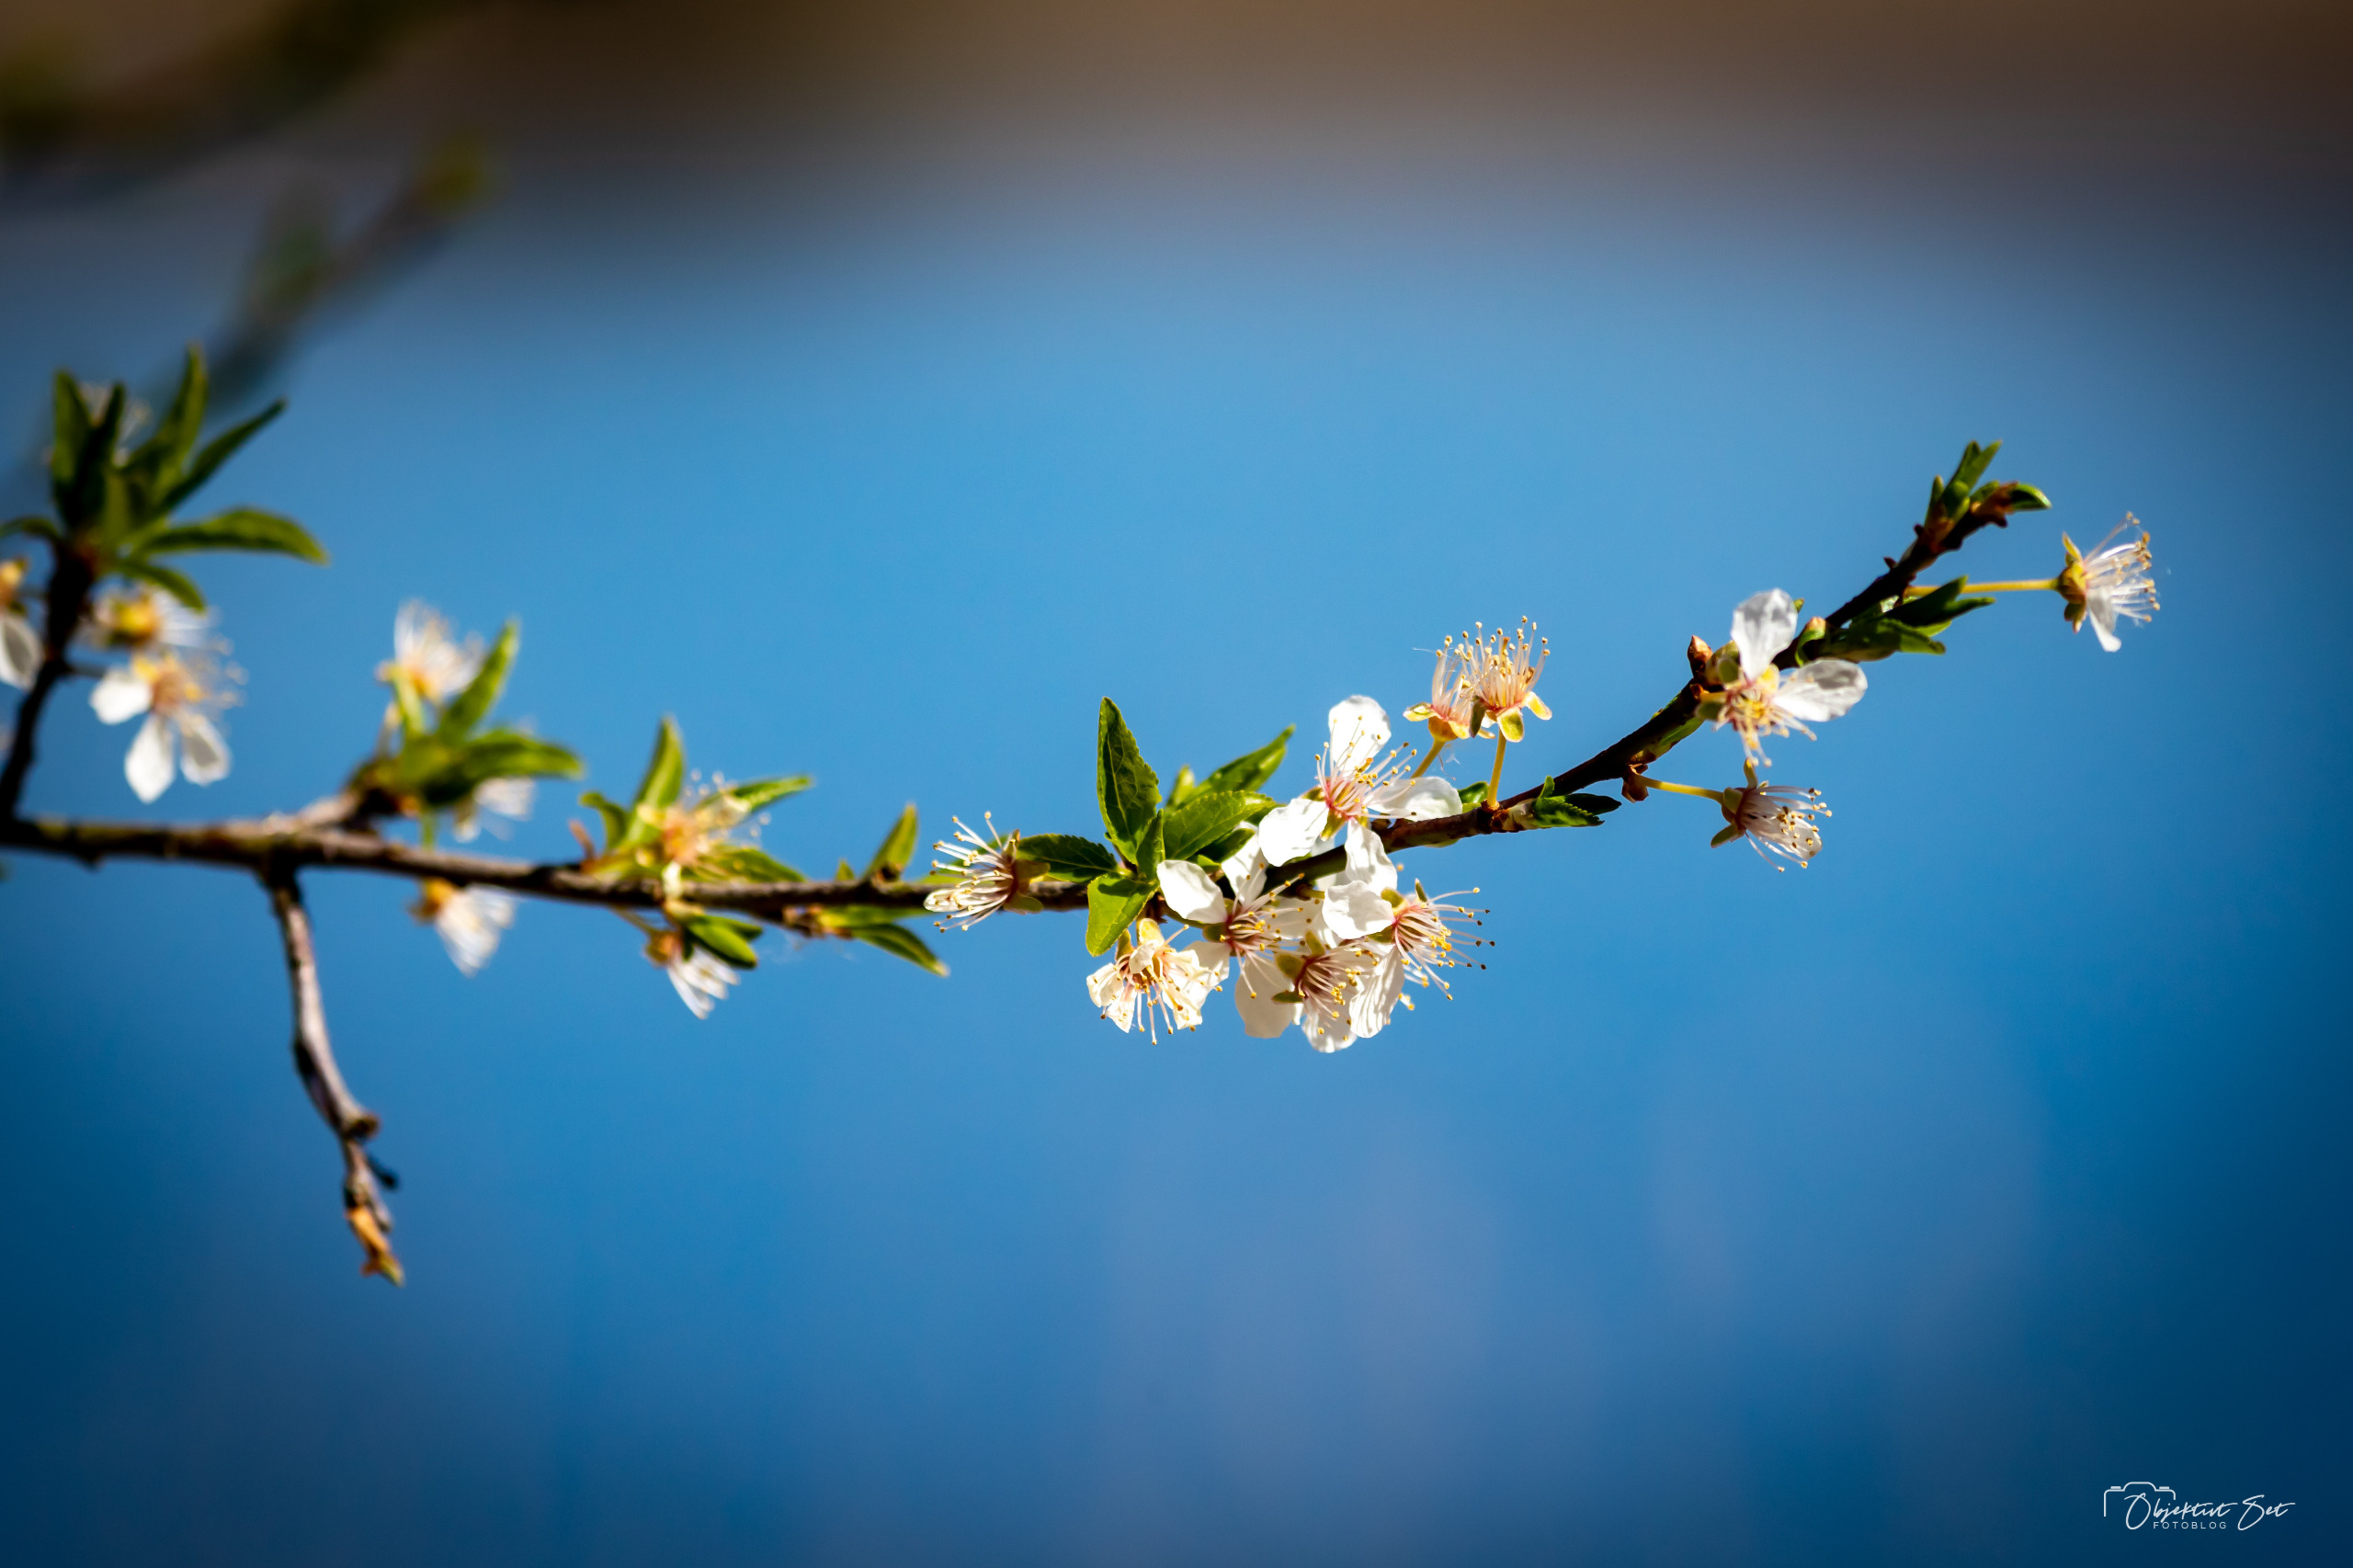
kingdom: Plantae
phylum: Tracheophyta
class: Magnoliopsida
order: Rosales
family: Rosaceae
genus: Prunus
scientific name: Prunus cerasifera
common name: Mirabel
